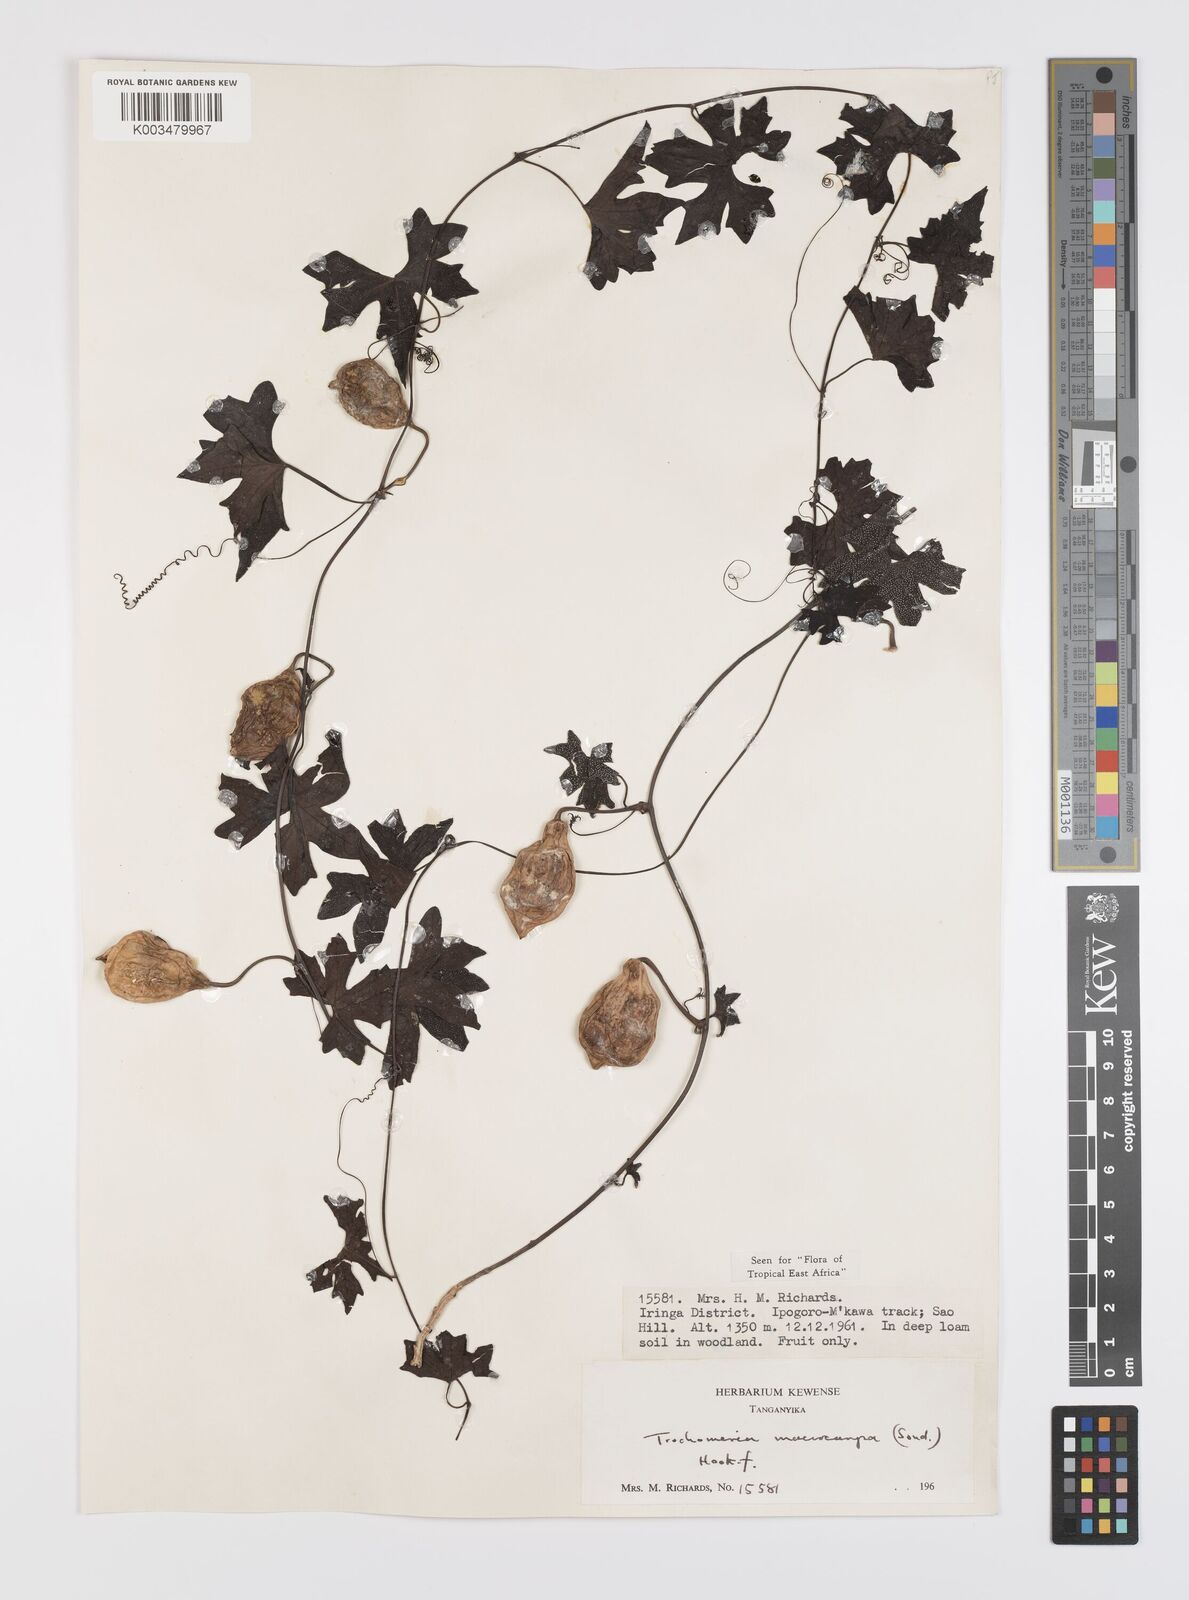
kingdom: Plantae
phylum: Tracheophyta
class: Magnoliopsida
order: Cucurbitales
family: Cucurbitaceae
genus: Trochomeria
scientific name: Trochomeria macrocarpa
